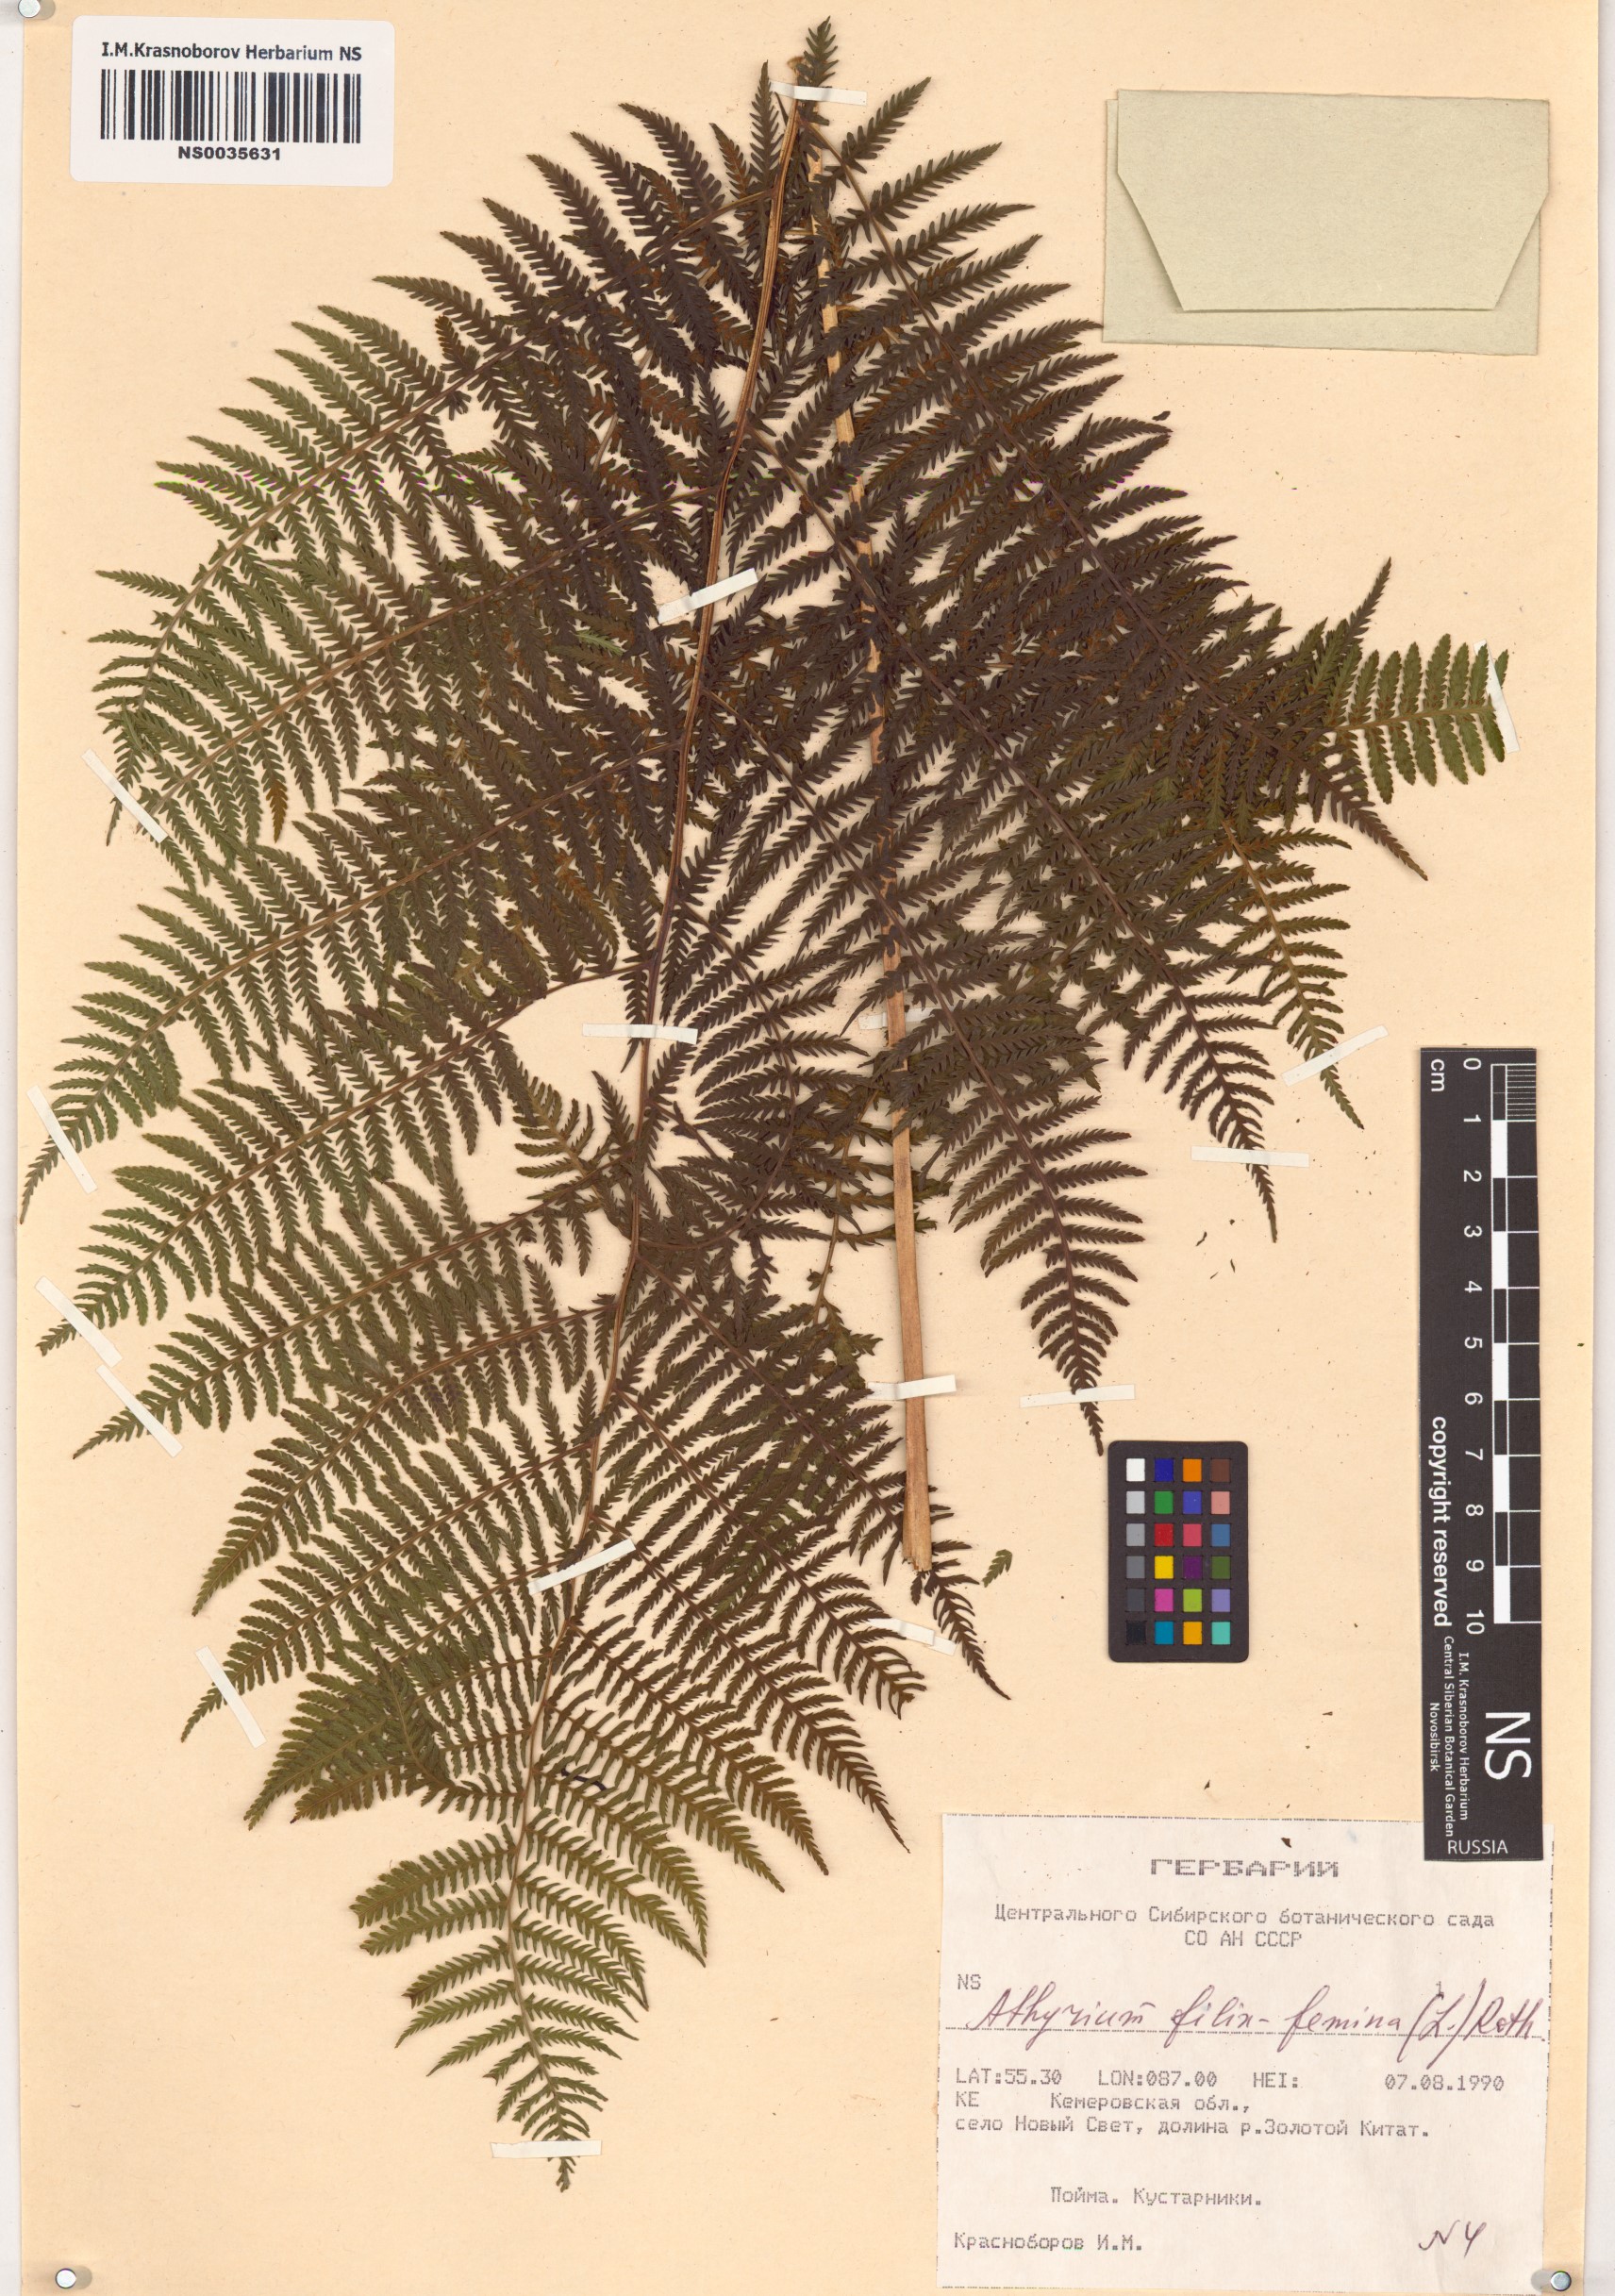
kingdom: Plantae
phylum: Tracheophyta
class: Polypodiopsida
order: Polypodiales
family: Athyriaceae
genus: Athyrium
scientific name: Athyrium filix-femina
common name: Lady fern
